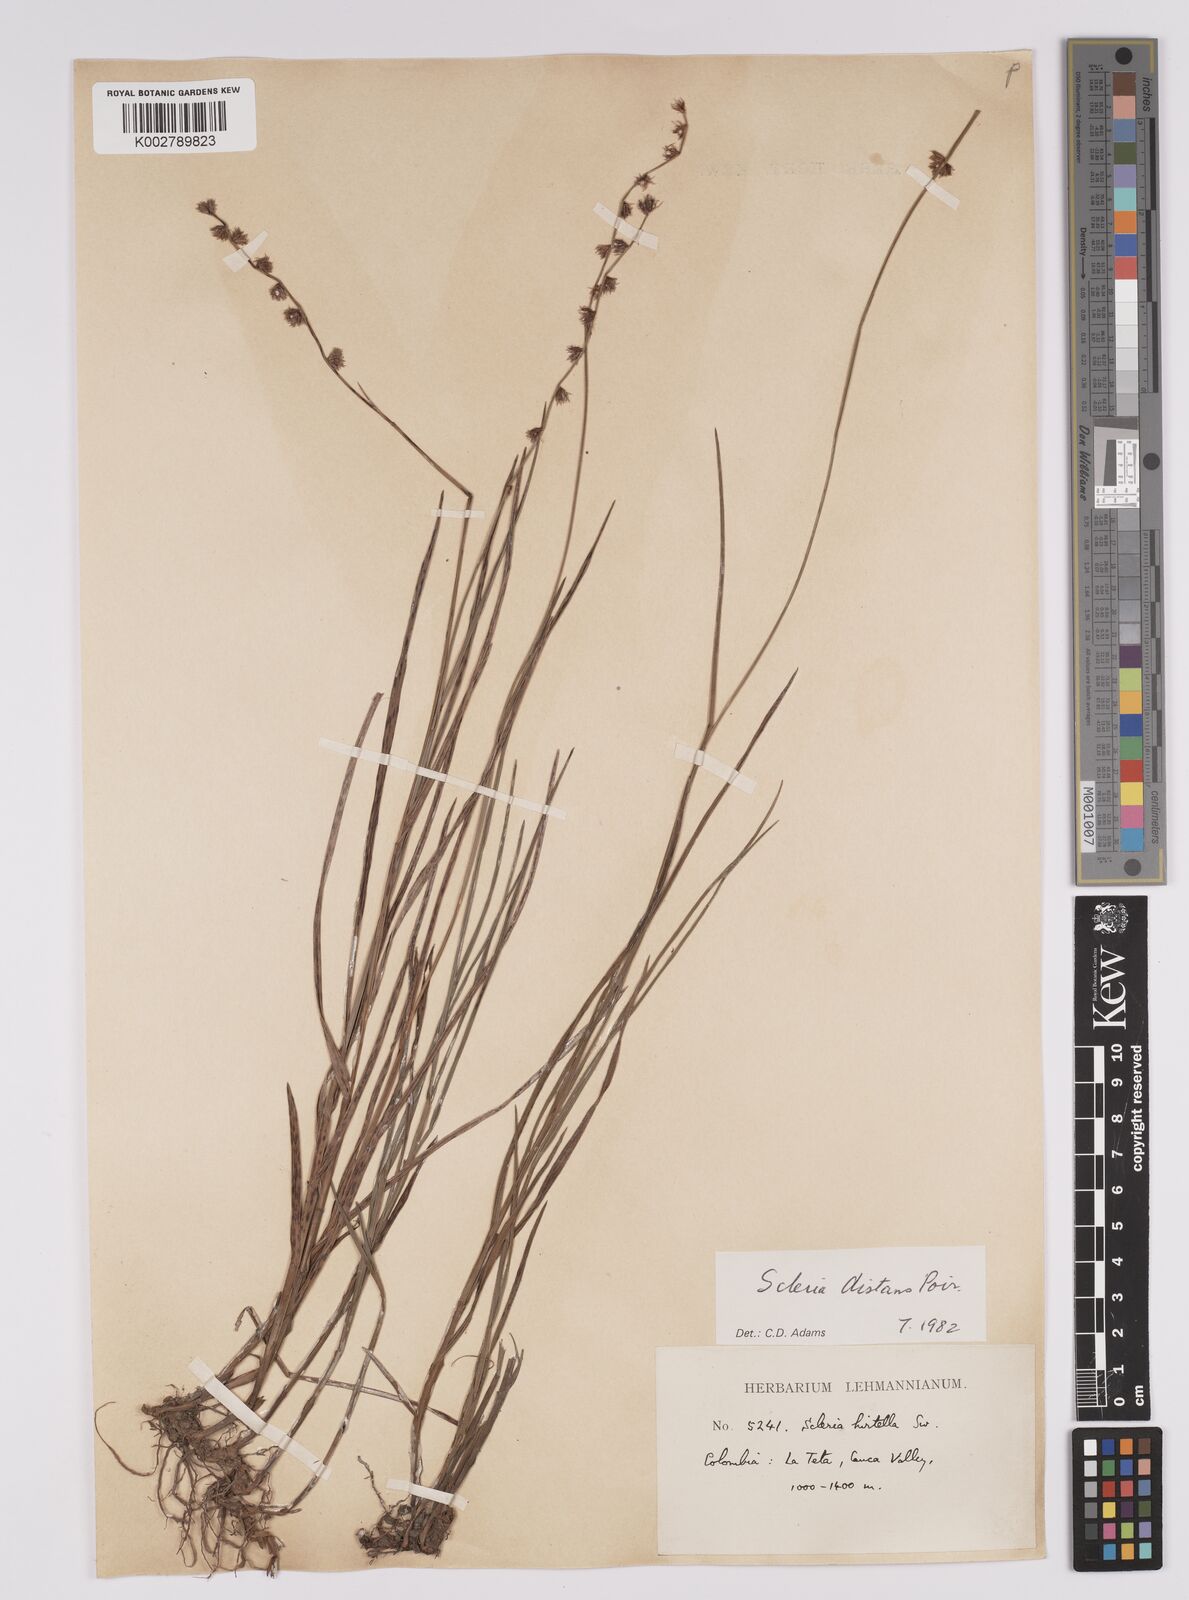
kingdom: Plantae
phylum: Tracheophyta
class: Liliopsida
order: Poales
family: Cyperaceae
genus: Scleria
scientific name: Scleria distans
